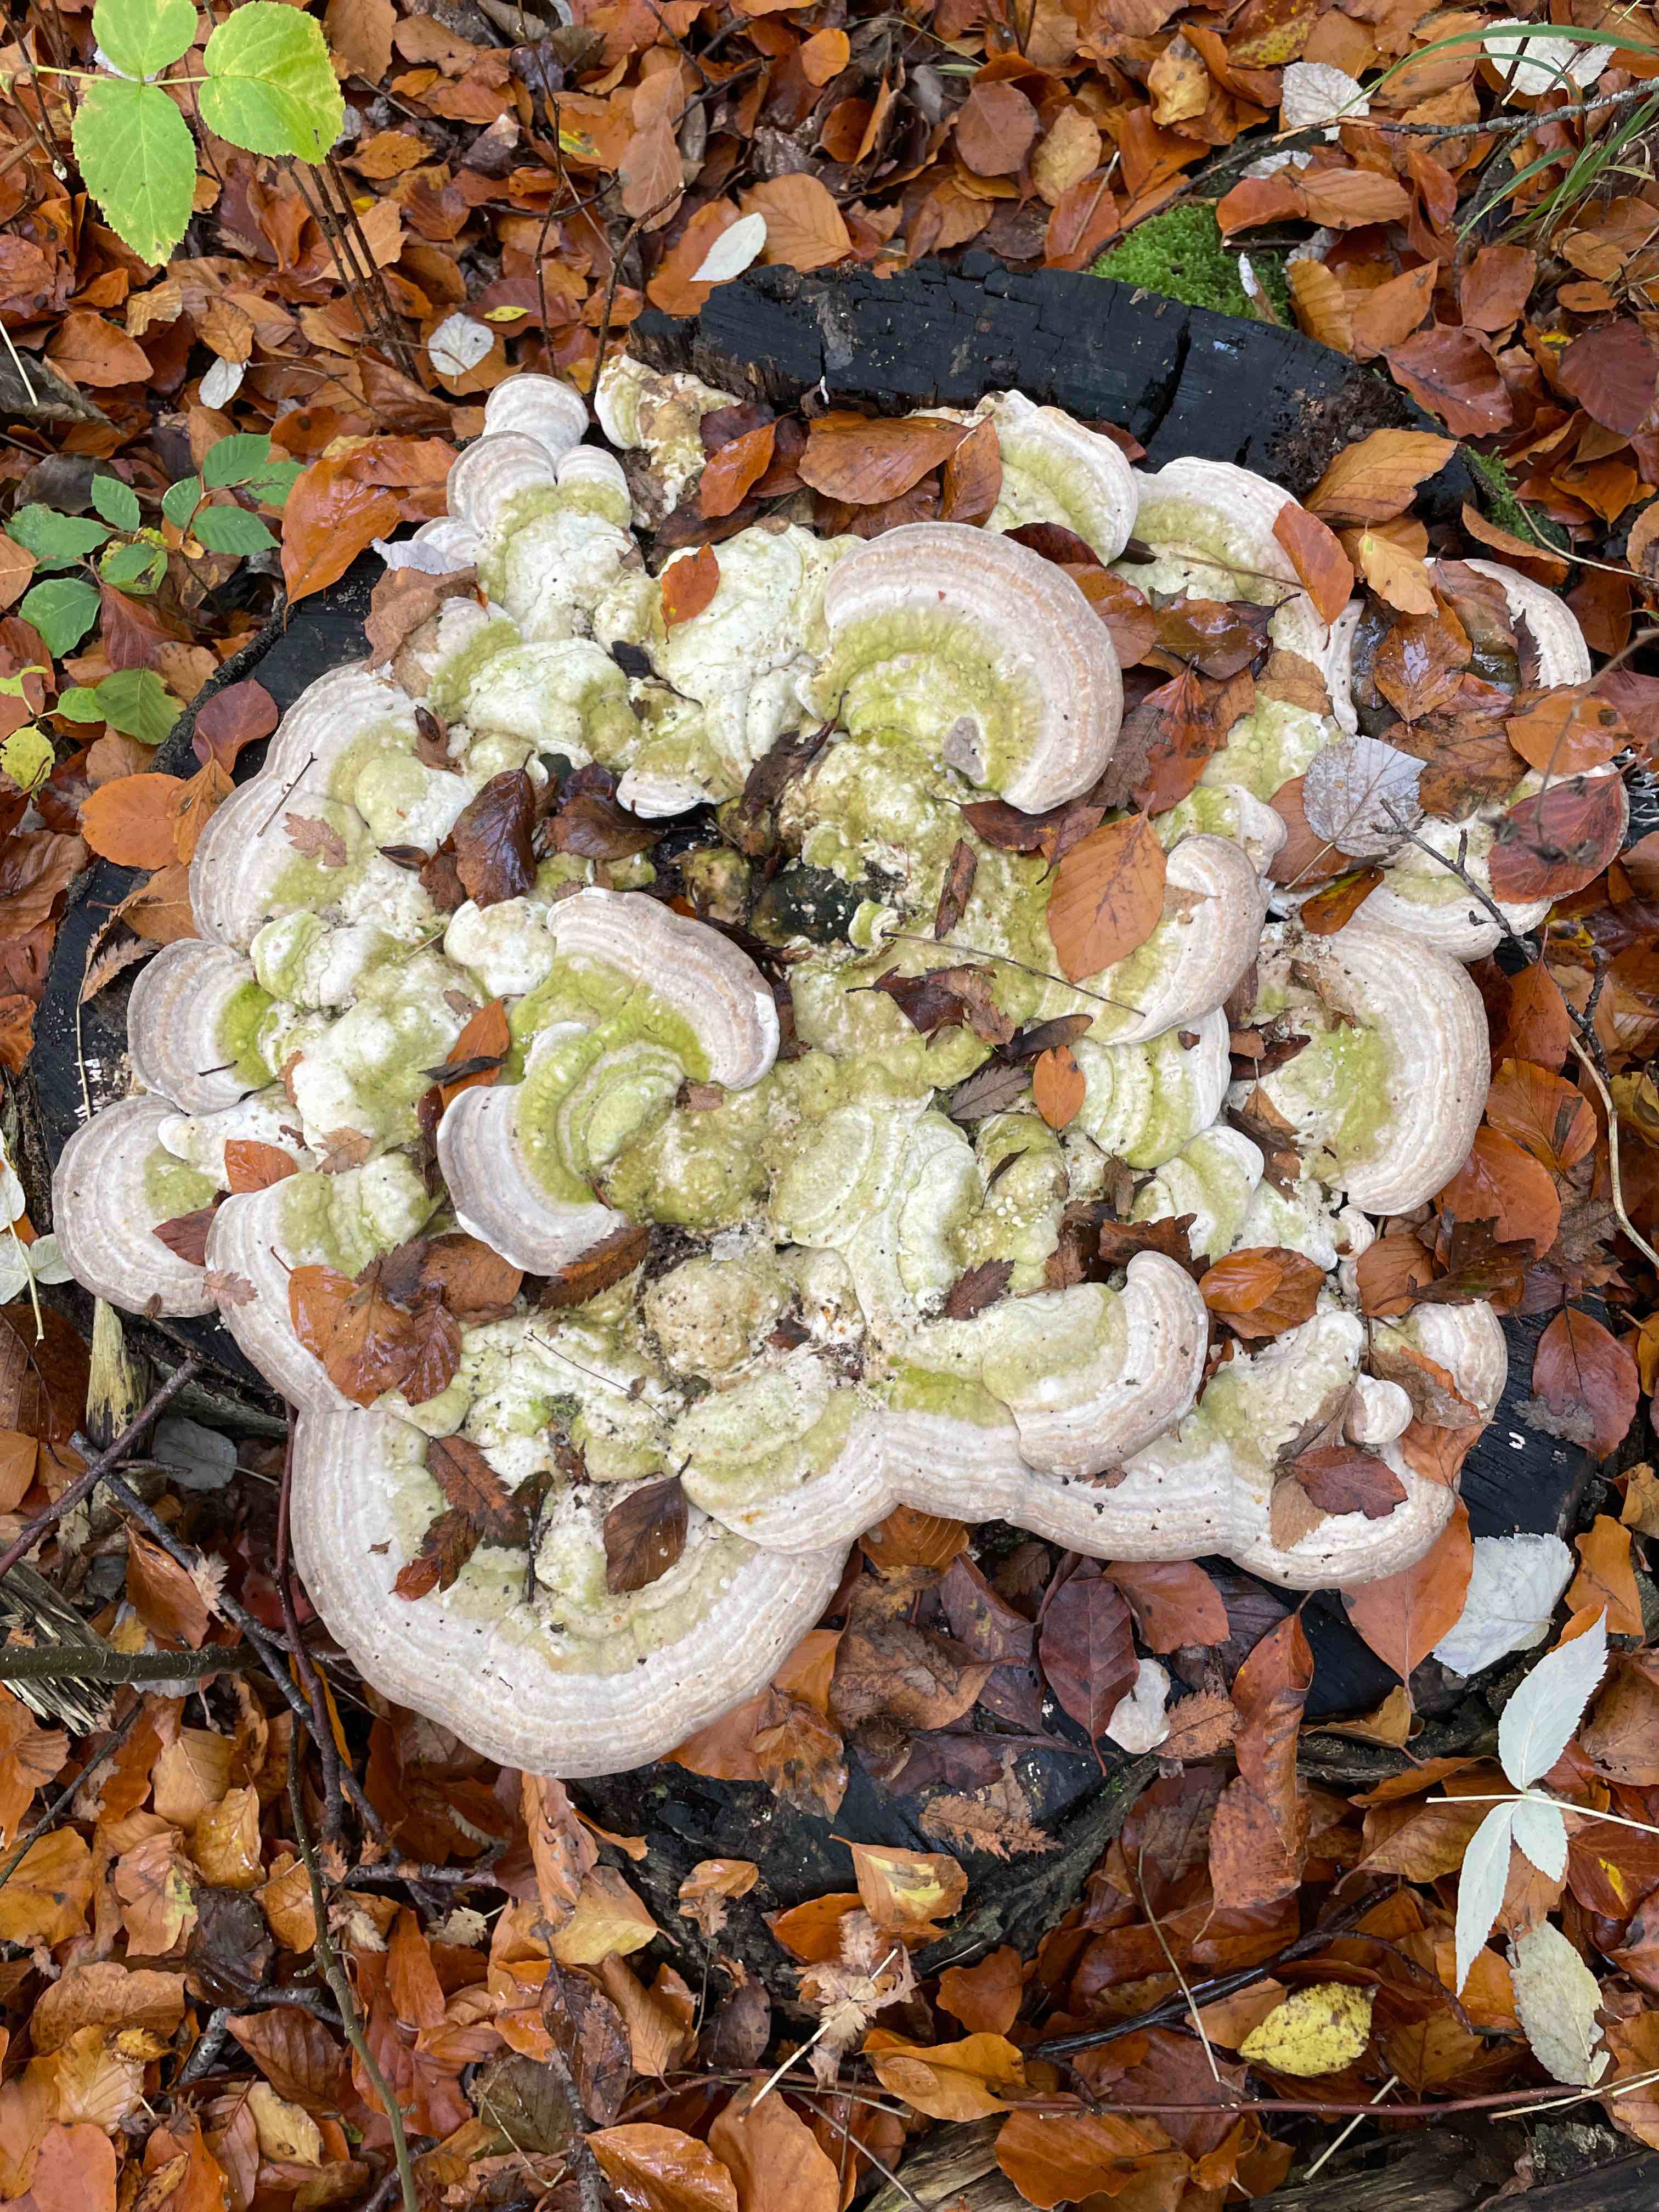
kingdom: Fungi
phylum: Basidiomycota
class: Agaricomycetes
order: Polyporales
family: Polyporaceae
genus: Trametes
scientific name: Trametes gibbosa
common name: puklet læderporesvamp
